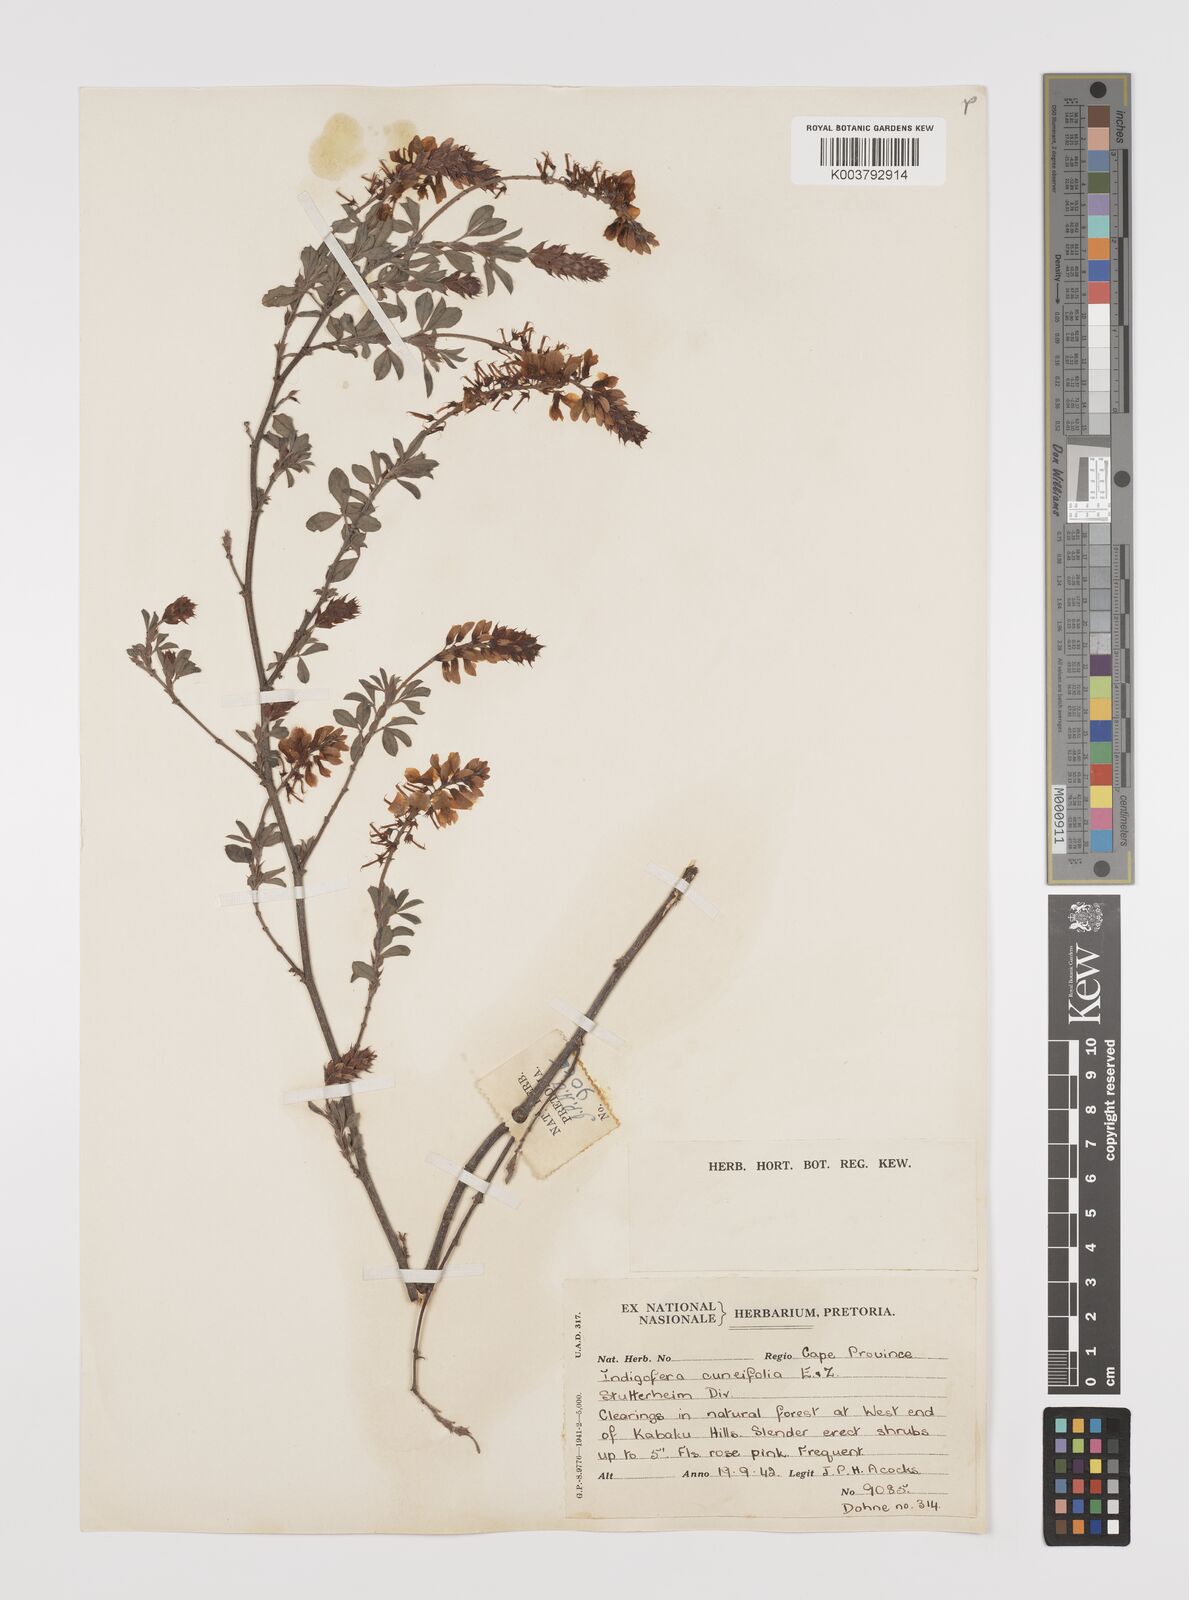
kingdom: Plantae
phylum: Tracheophyta
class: Magnoliopsida
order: Fabales
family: Fabaceae
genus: Indigofera
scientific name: Indigofera cuneifolia
